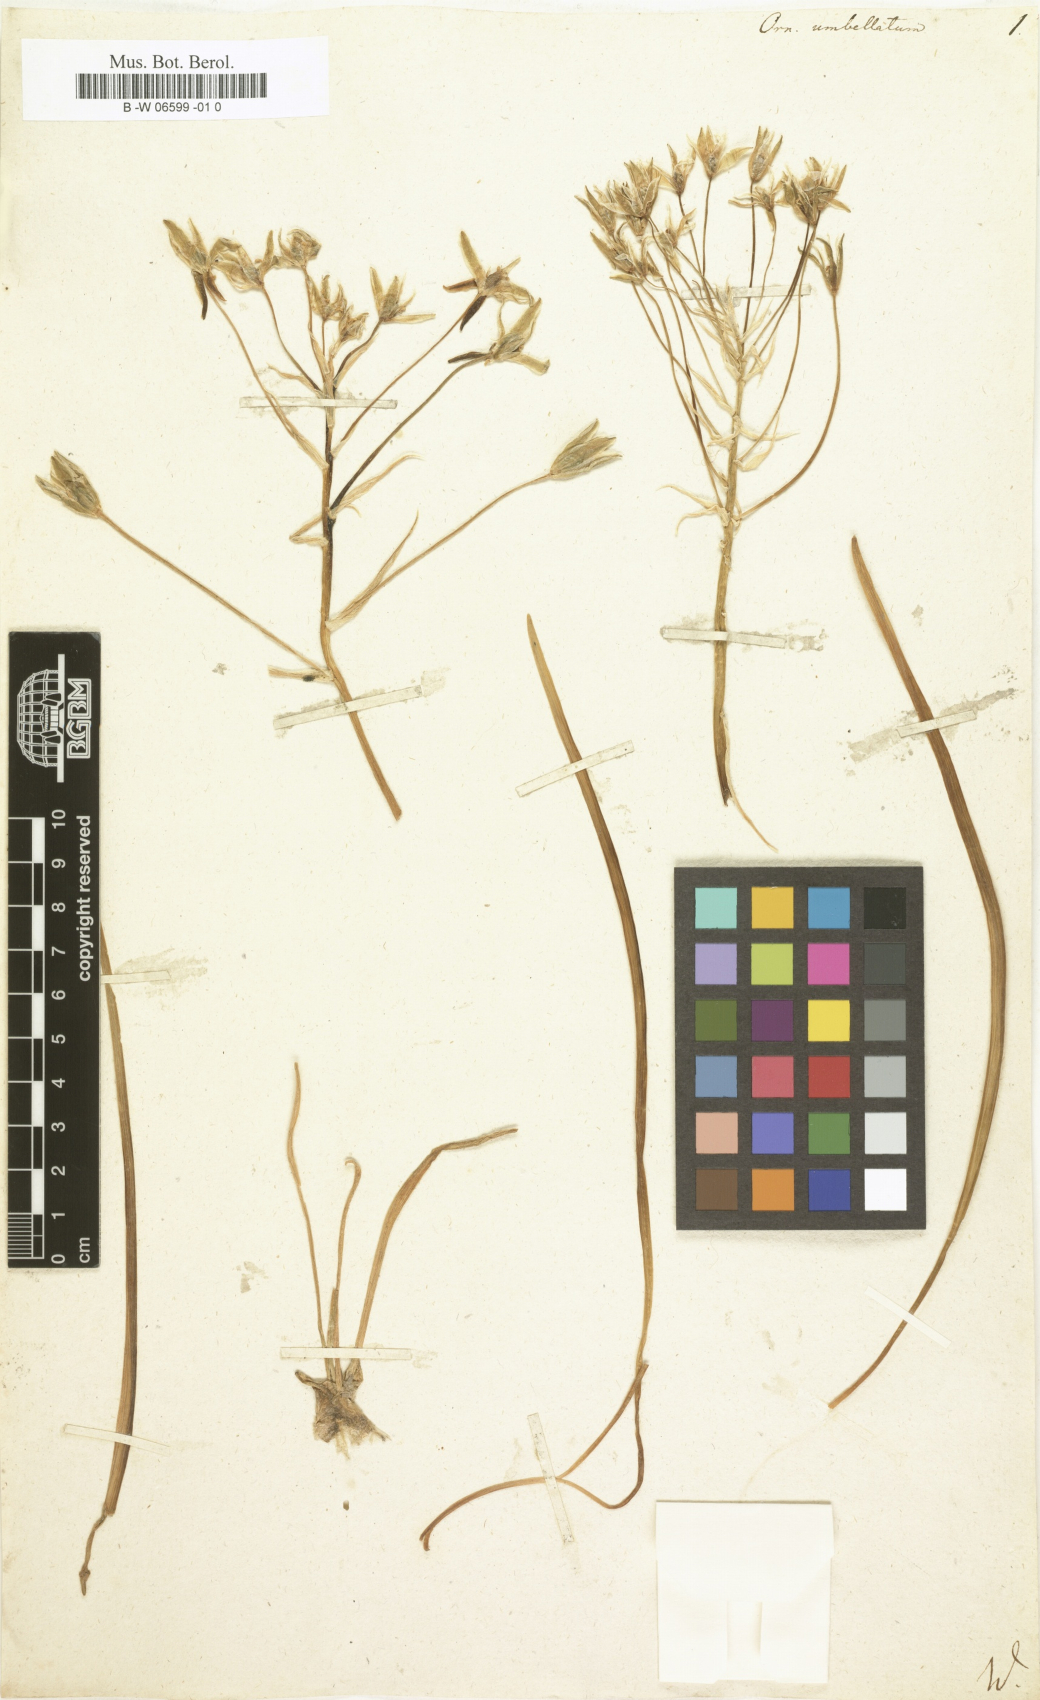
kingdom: Plantae
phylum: Tracheophyta
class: Liliopsida
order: Asparagales
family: Asparagaceae
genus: Ornithogalum
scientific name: Ornithogalum umbellatum
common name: Garden star-of-bethlehem
